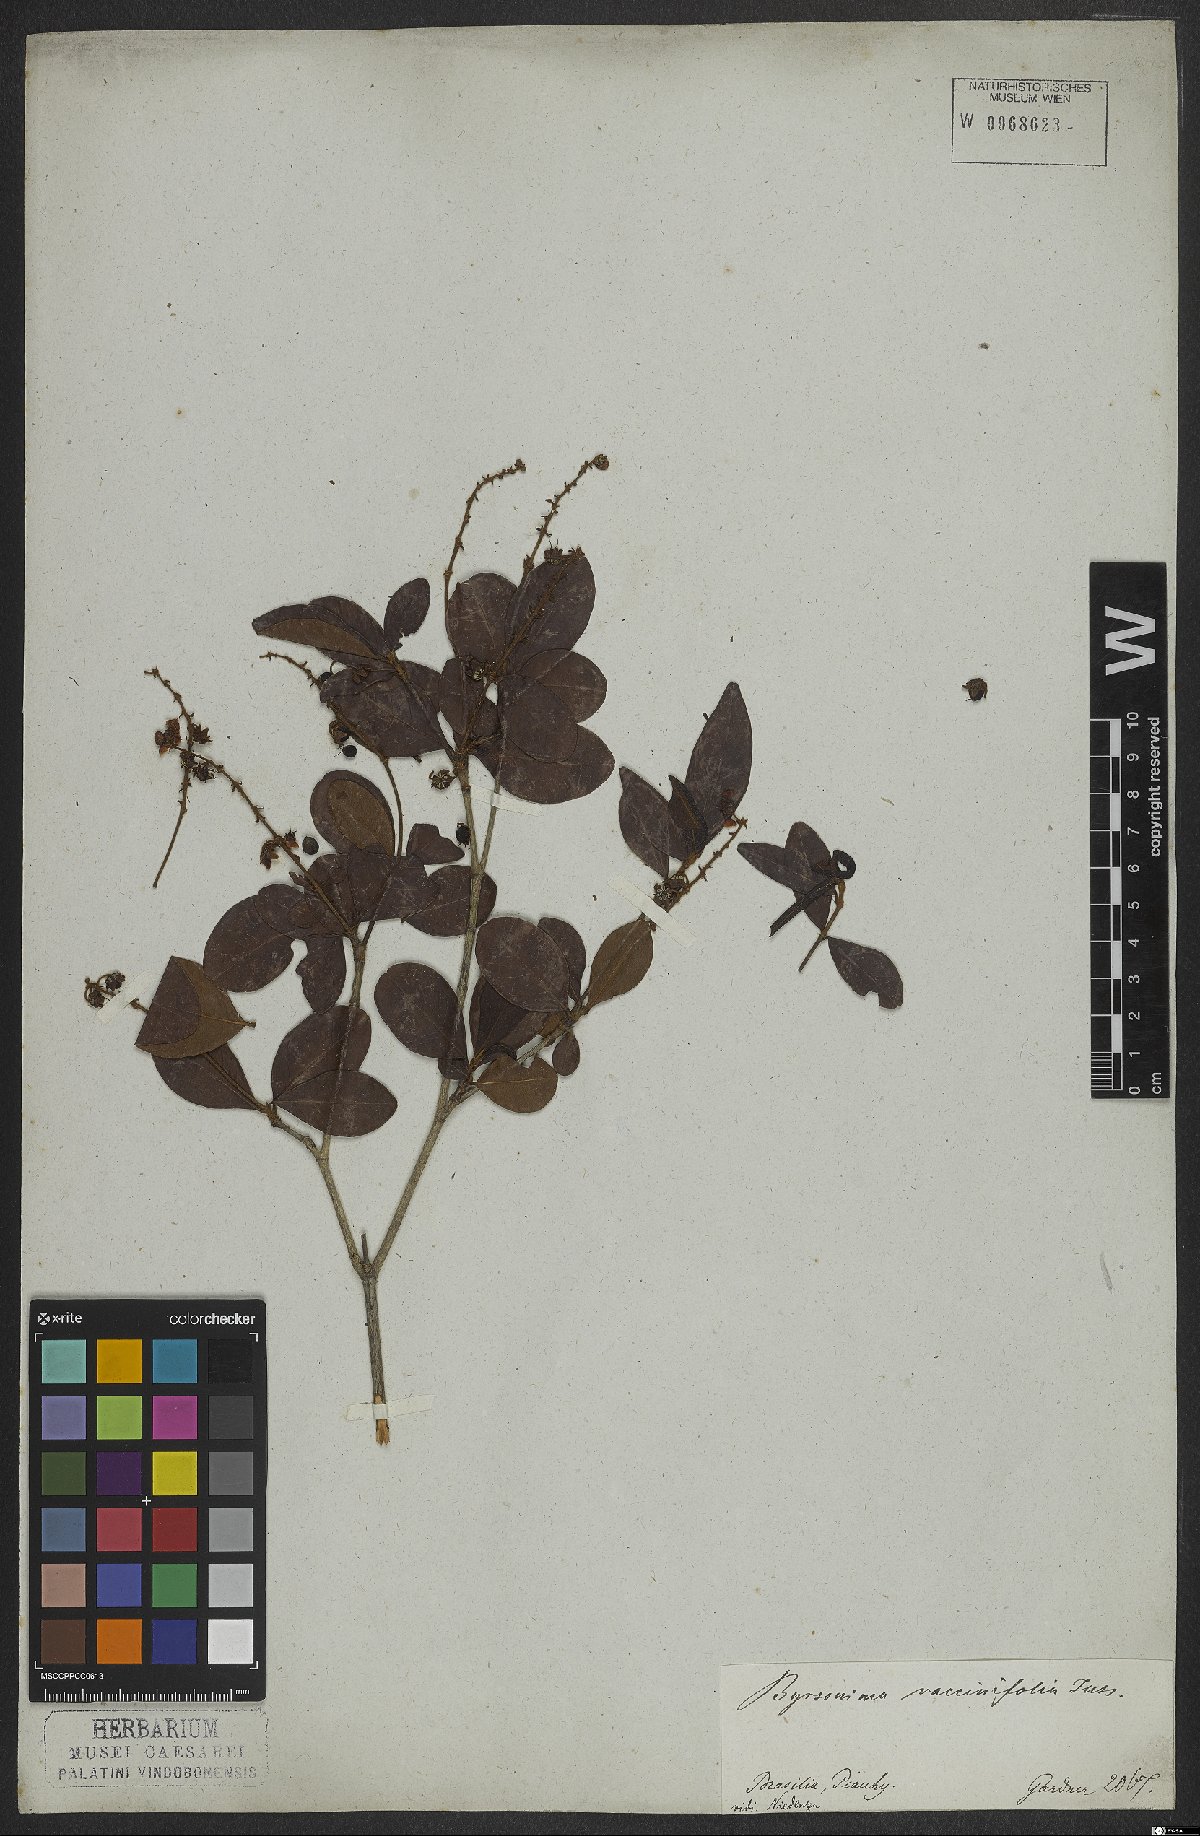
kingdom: Plantae
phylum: Tracheophyta
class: Magnoliopsida
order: Malpighiales
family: Malpighiaceae
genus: Byrsonima
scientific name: Byrsonima vacciniifolia
